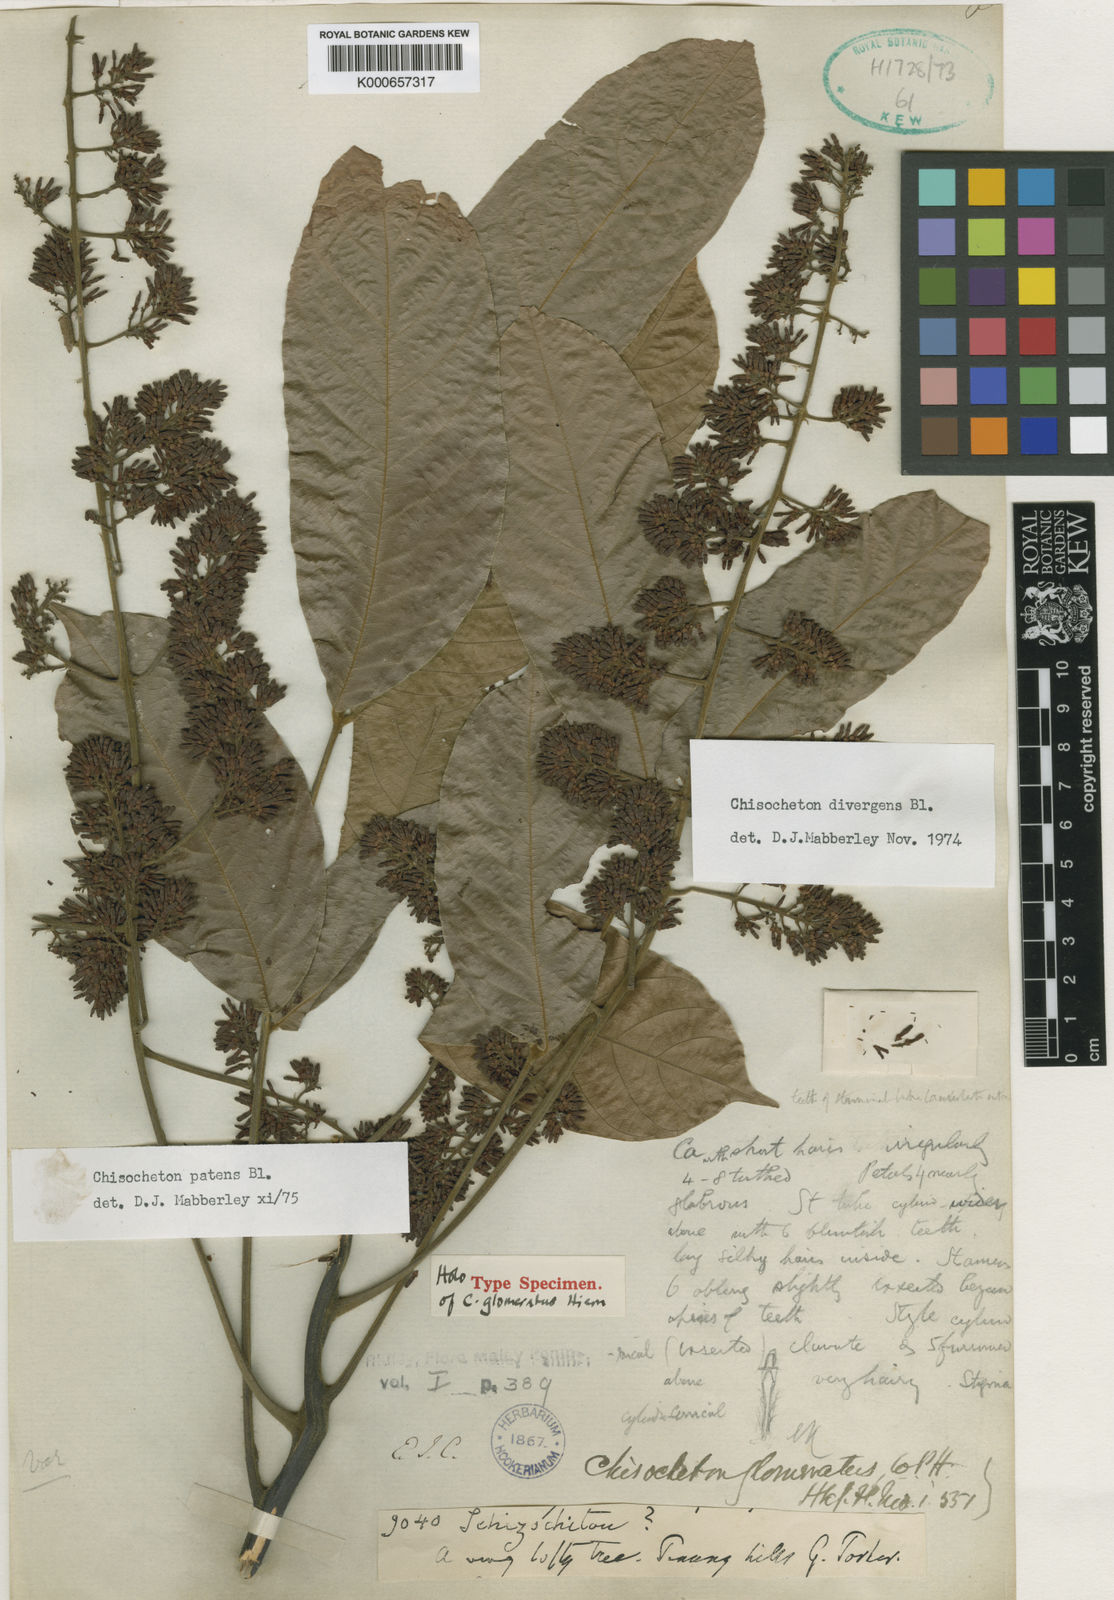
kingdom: Plantae
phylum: Tracheophyta
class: Magnoliopsida
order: Sapindales
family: Meliaceae
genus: Chisocheton
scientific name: Chisocheton patens
